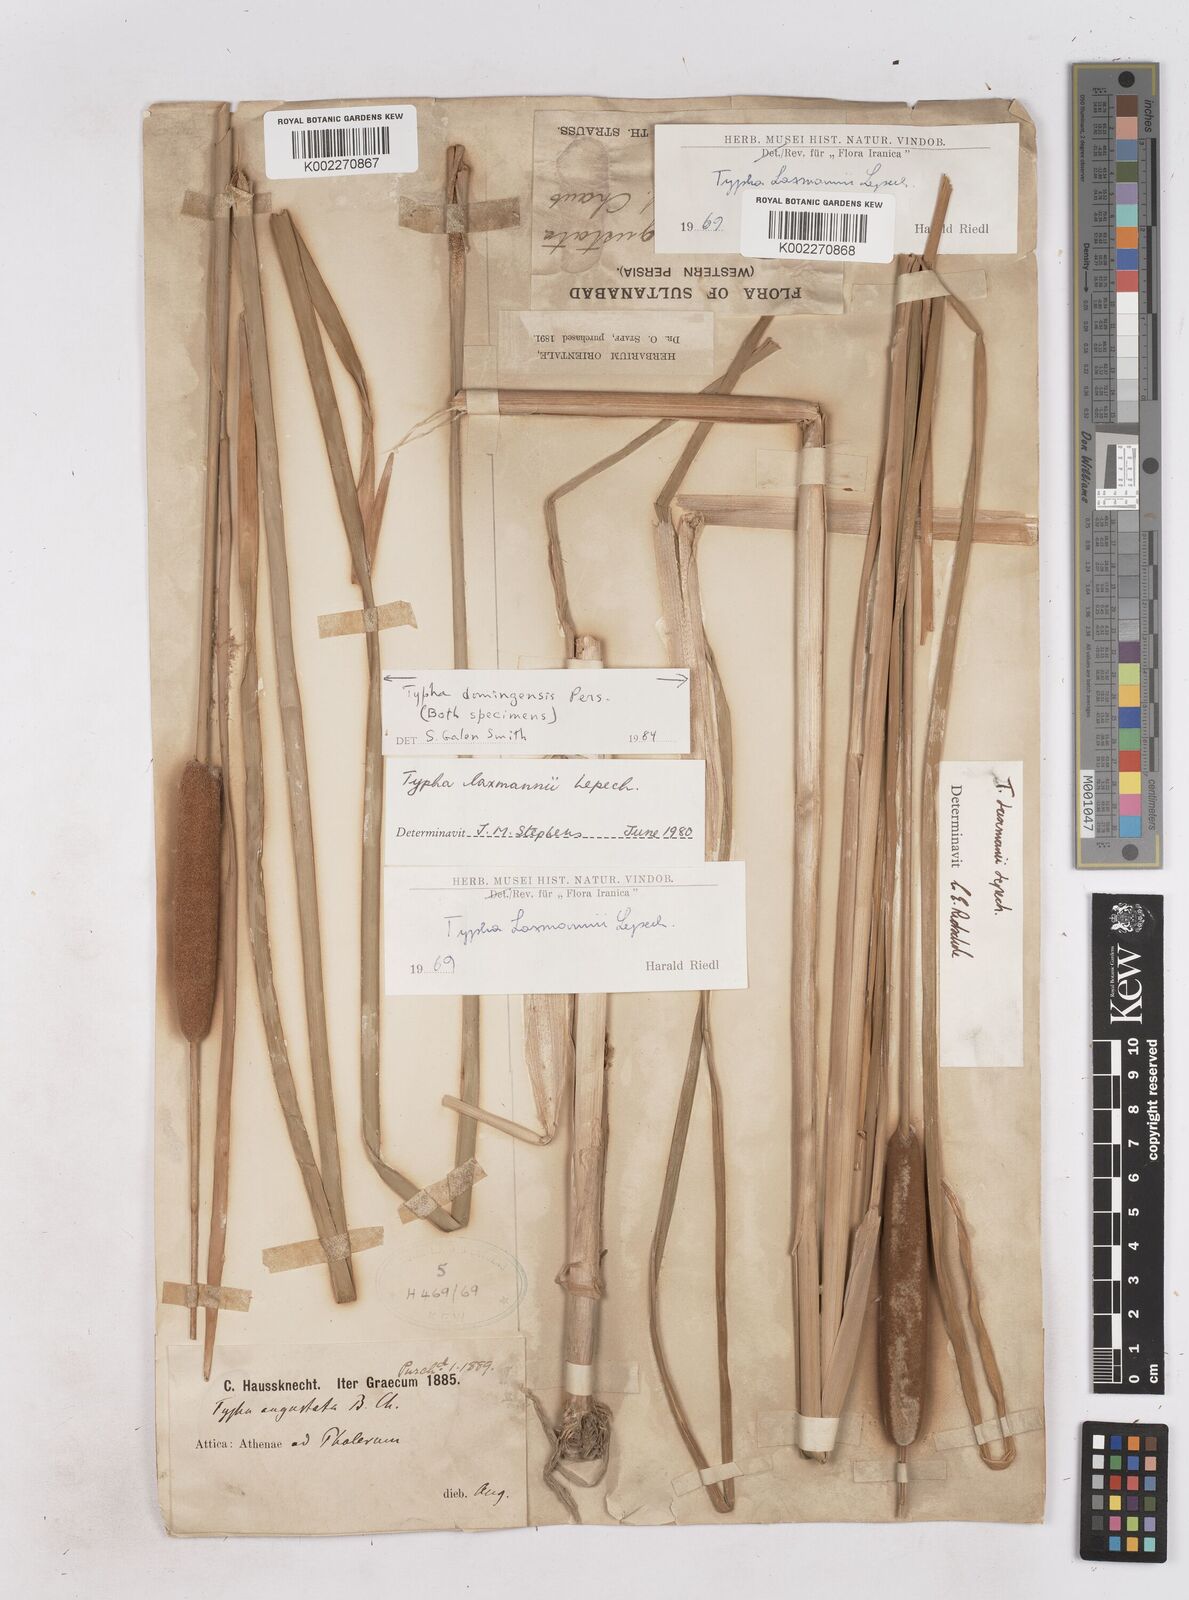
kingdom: Plantae
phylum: Tracheophyta
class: Liliopsida
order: Poales
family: Typhaceae
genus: Typha
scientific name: Typha domingensis
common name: Southern cattail
